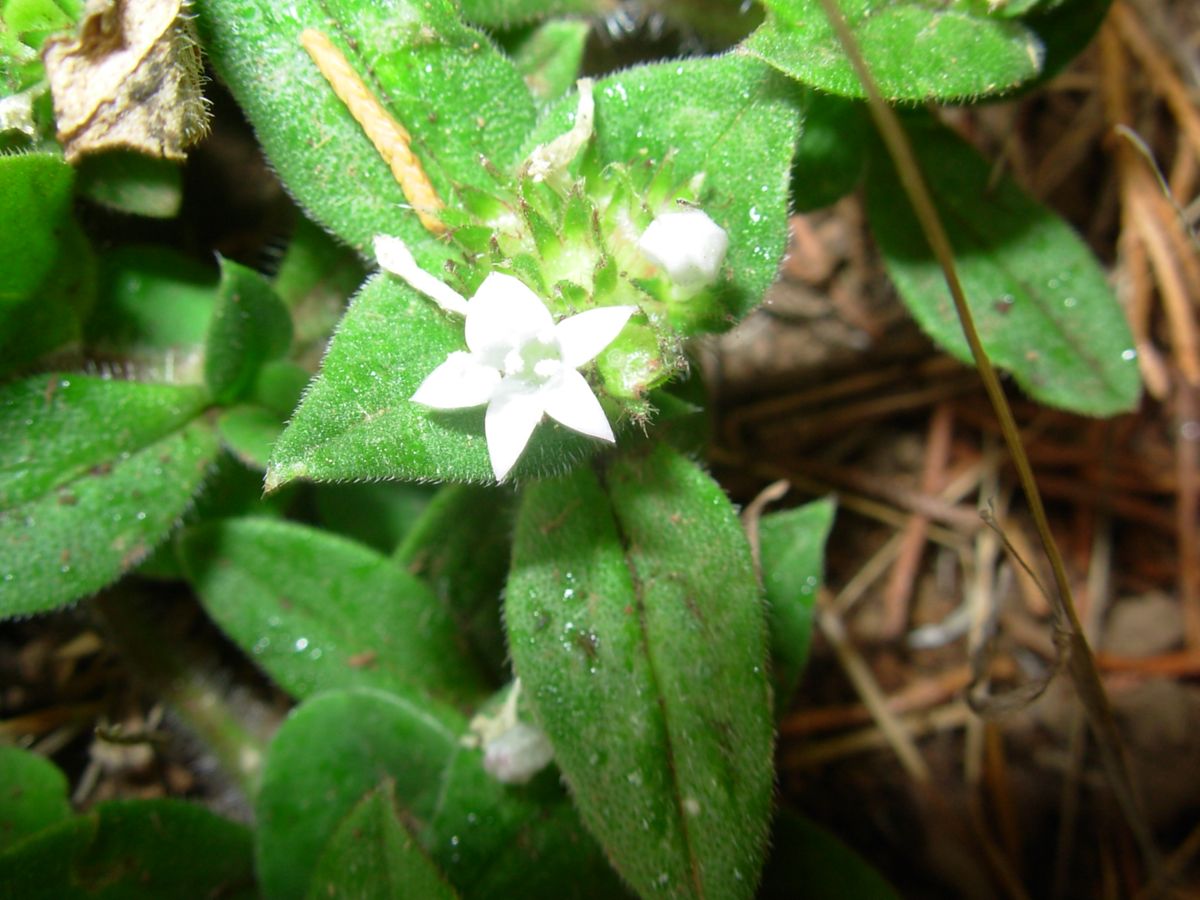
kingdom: Plantae
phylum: Tracheophyta
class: Magnoliopsida
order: Gentianales
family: Rubiaceae
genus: Richardia
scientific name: Richardia scabra
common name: Rough mexican clover
